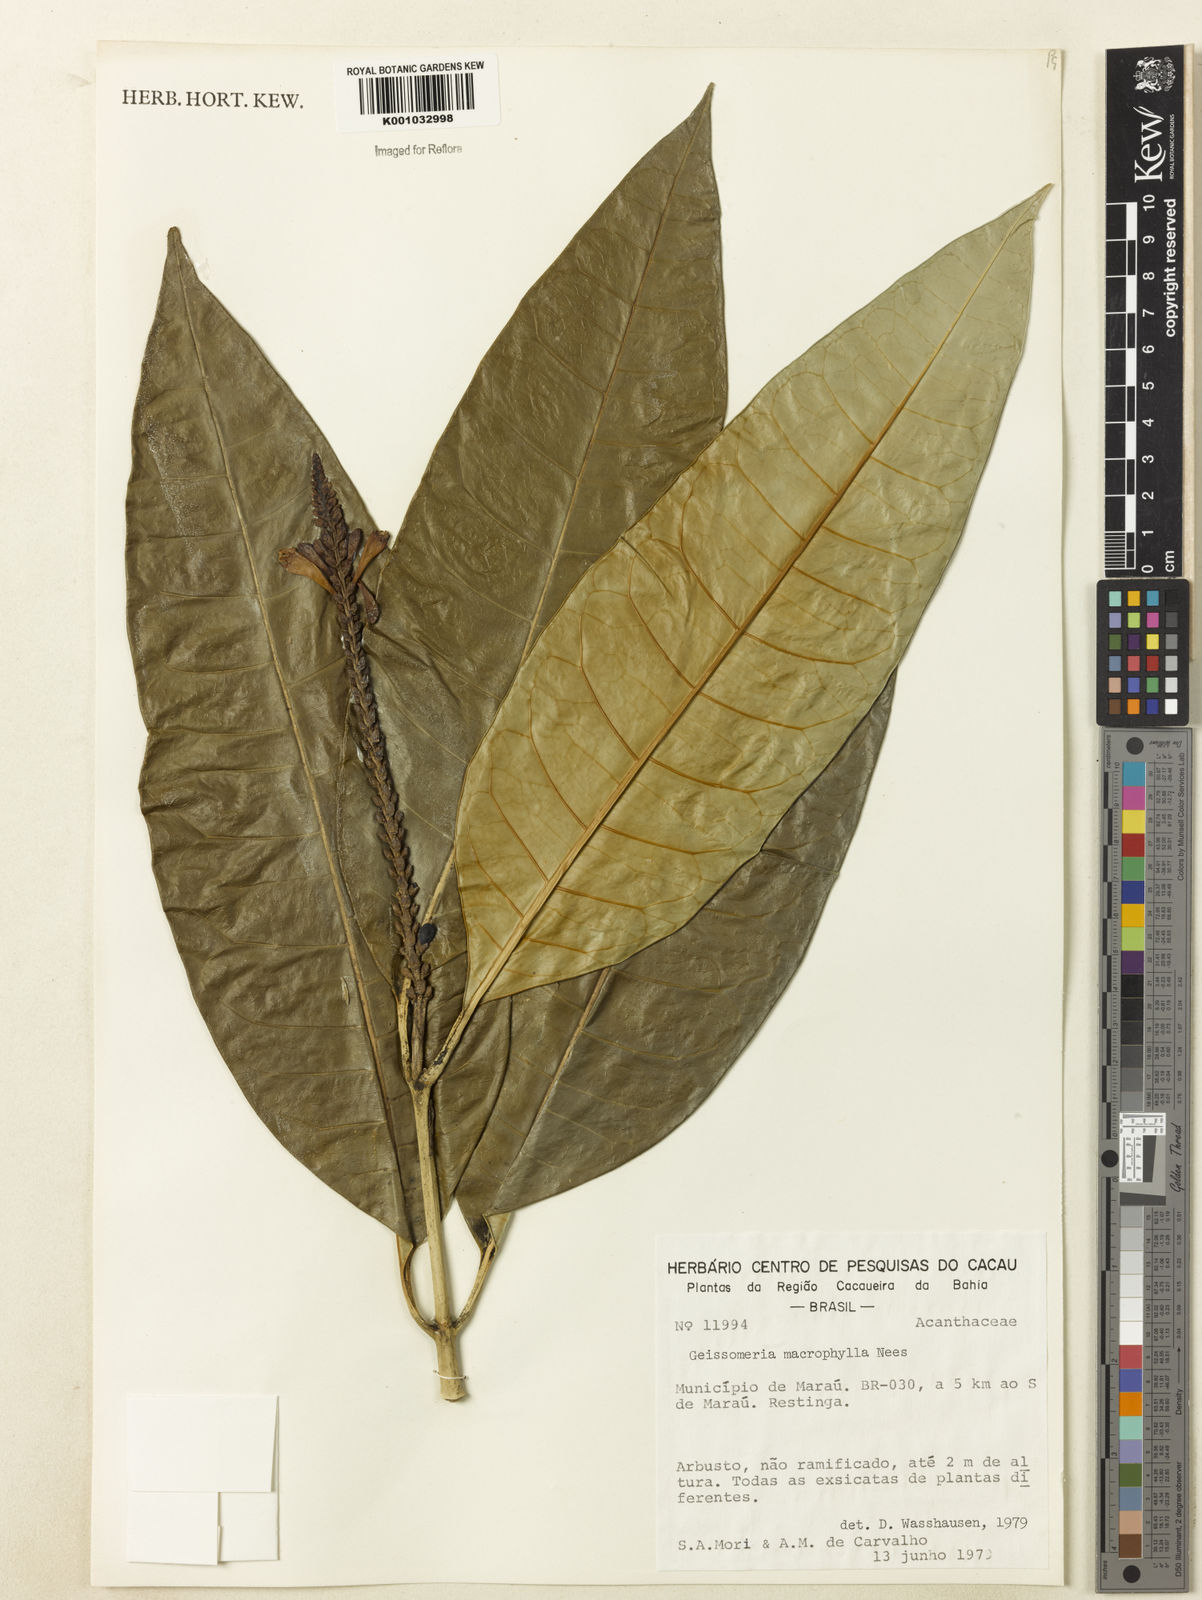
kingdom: Plantae
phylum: Tracheophyta
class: Magnoliopsida
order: Lamiales
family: Acanthaceae
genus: Aphelandra
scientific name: Aphelandra nitida
